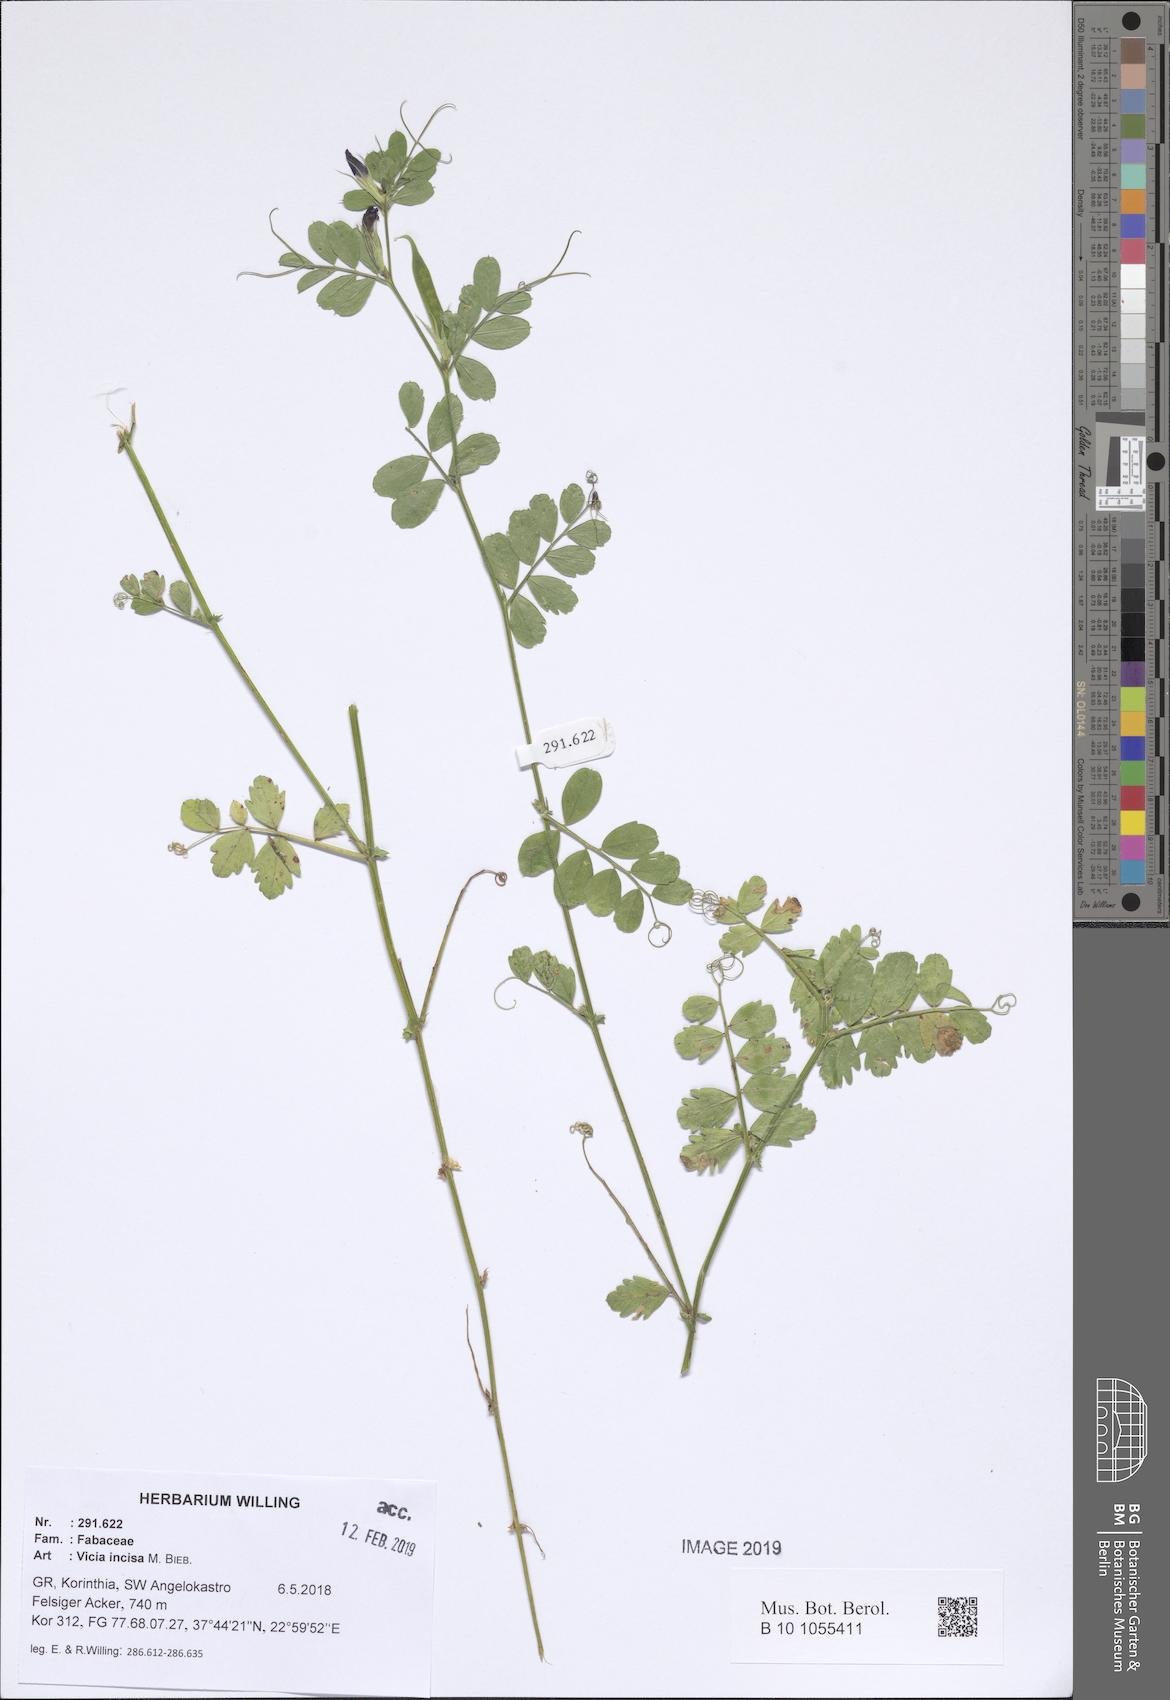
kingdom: Plantae
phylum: Tracheophyta
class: Magnoliopsida
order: Fabales
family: Fabaceae
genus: Vicia
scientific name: Vicia sativa
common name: Garden vetch
